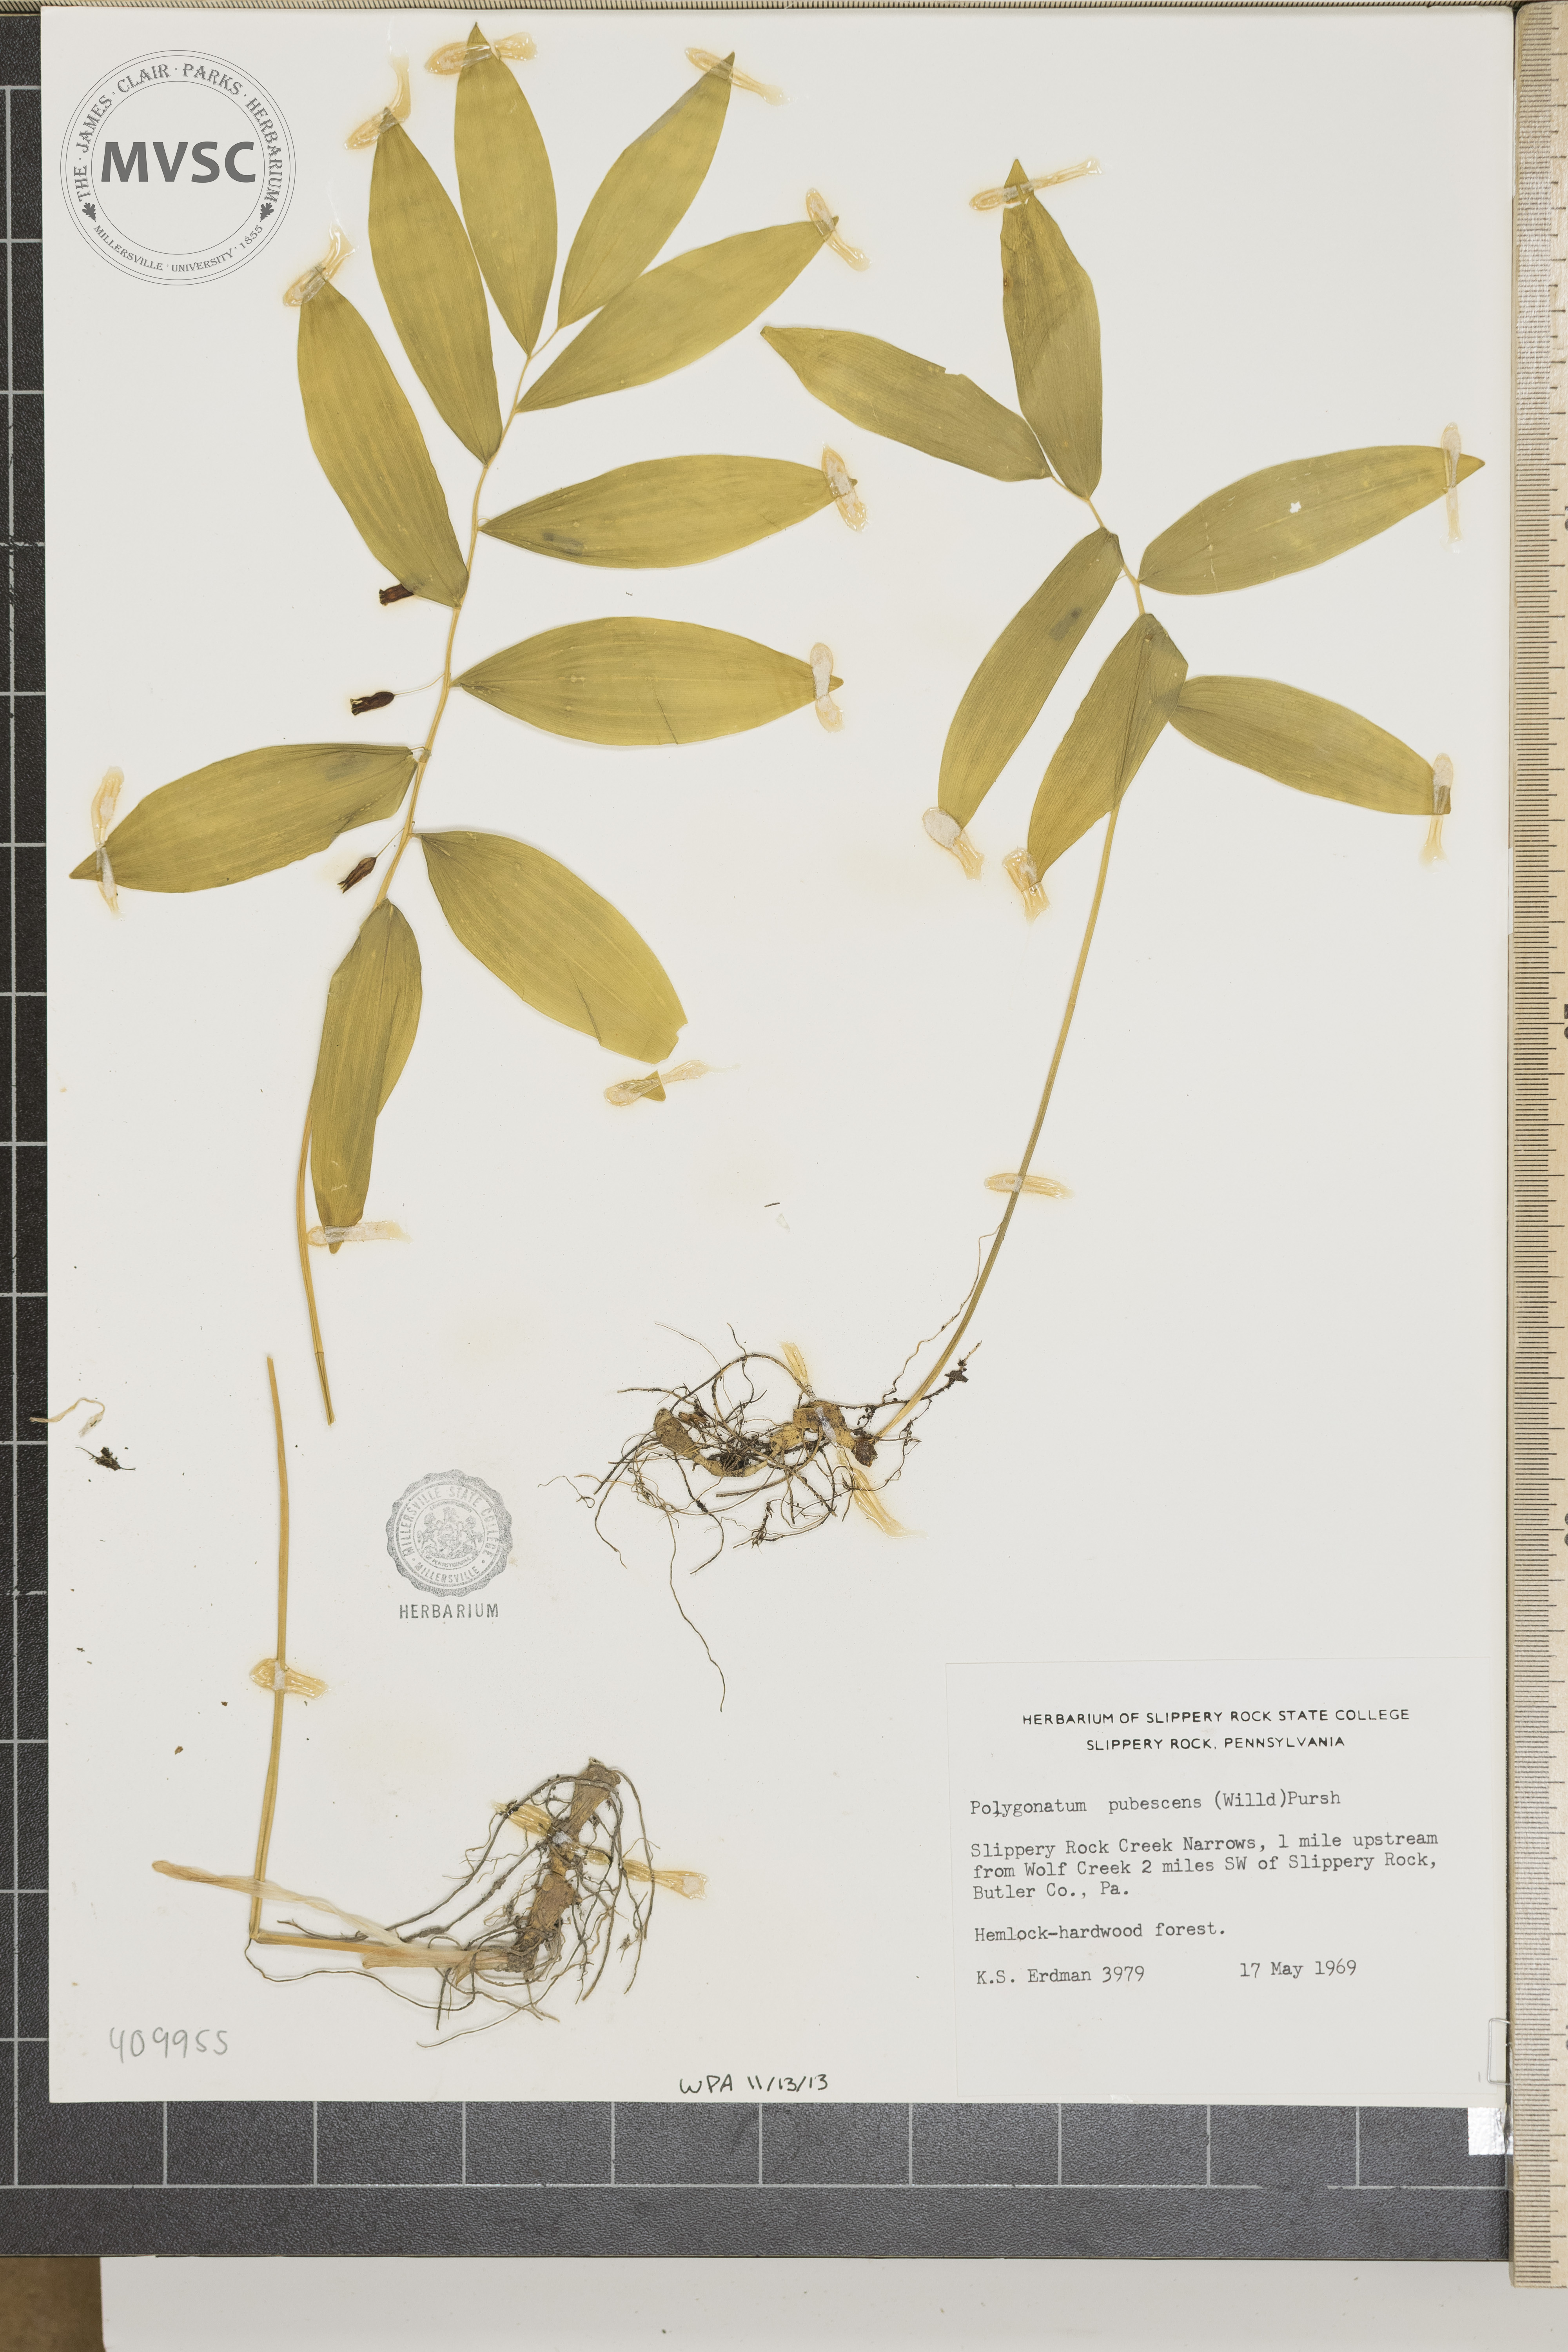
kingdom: Plantae
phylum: Tracheophyta
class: Liliopsida
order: Asparagales
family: Asparagaceae
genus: Polygonatum
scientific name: Polygonatum pubescens
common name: Downy solomon's seal
